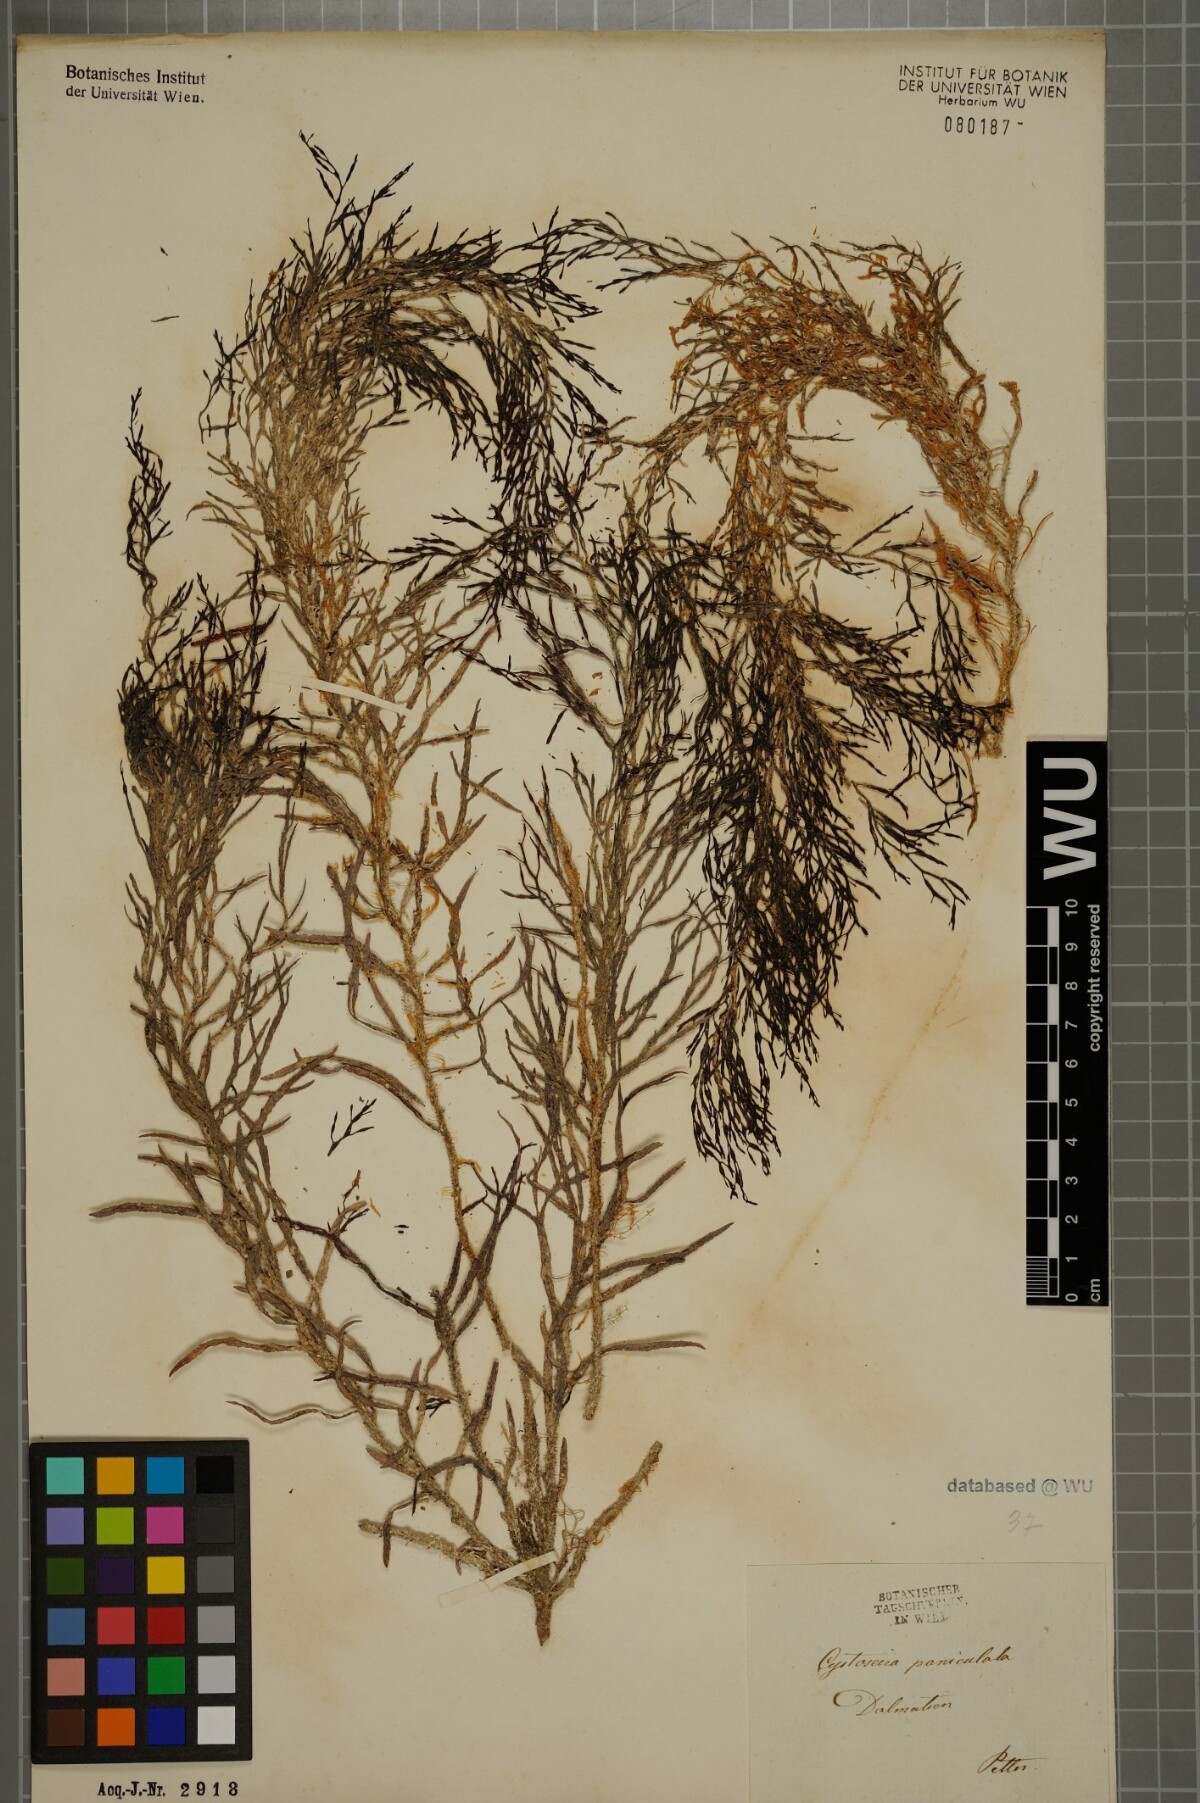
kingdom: Chromista
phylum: Ochrophyta
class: Phaeophyceae
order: Fucales
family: Sargassaceae
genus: Cystoseira
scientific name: Cystoseira
